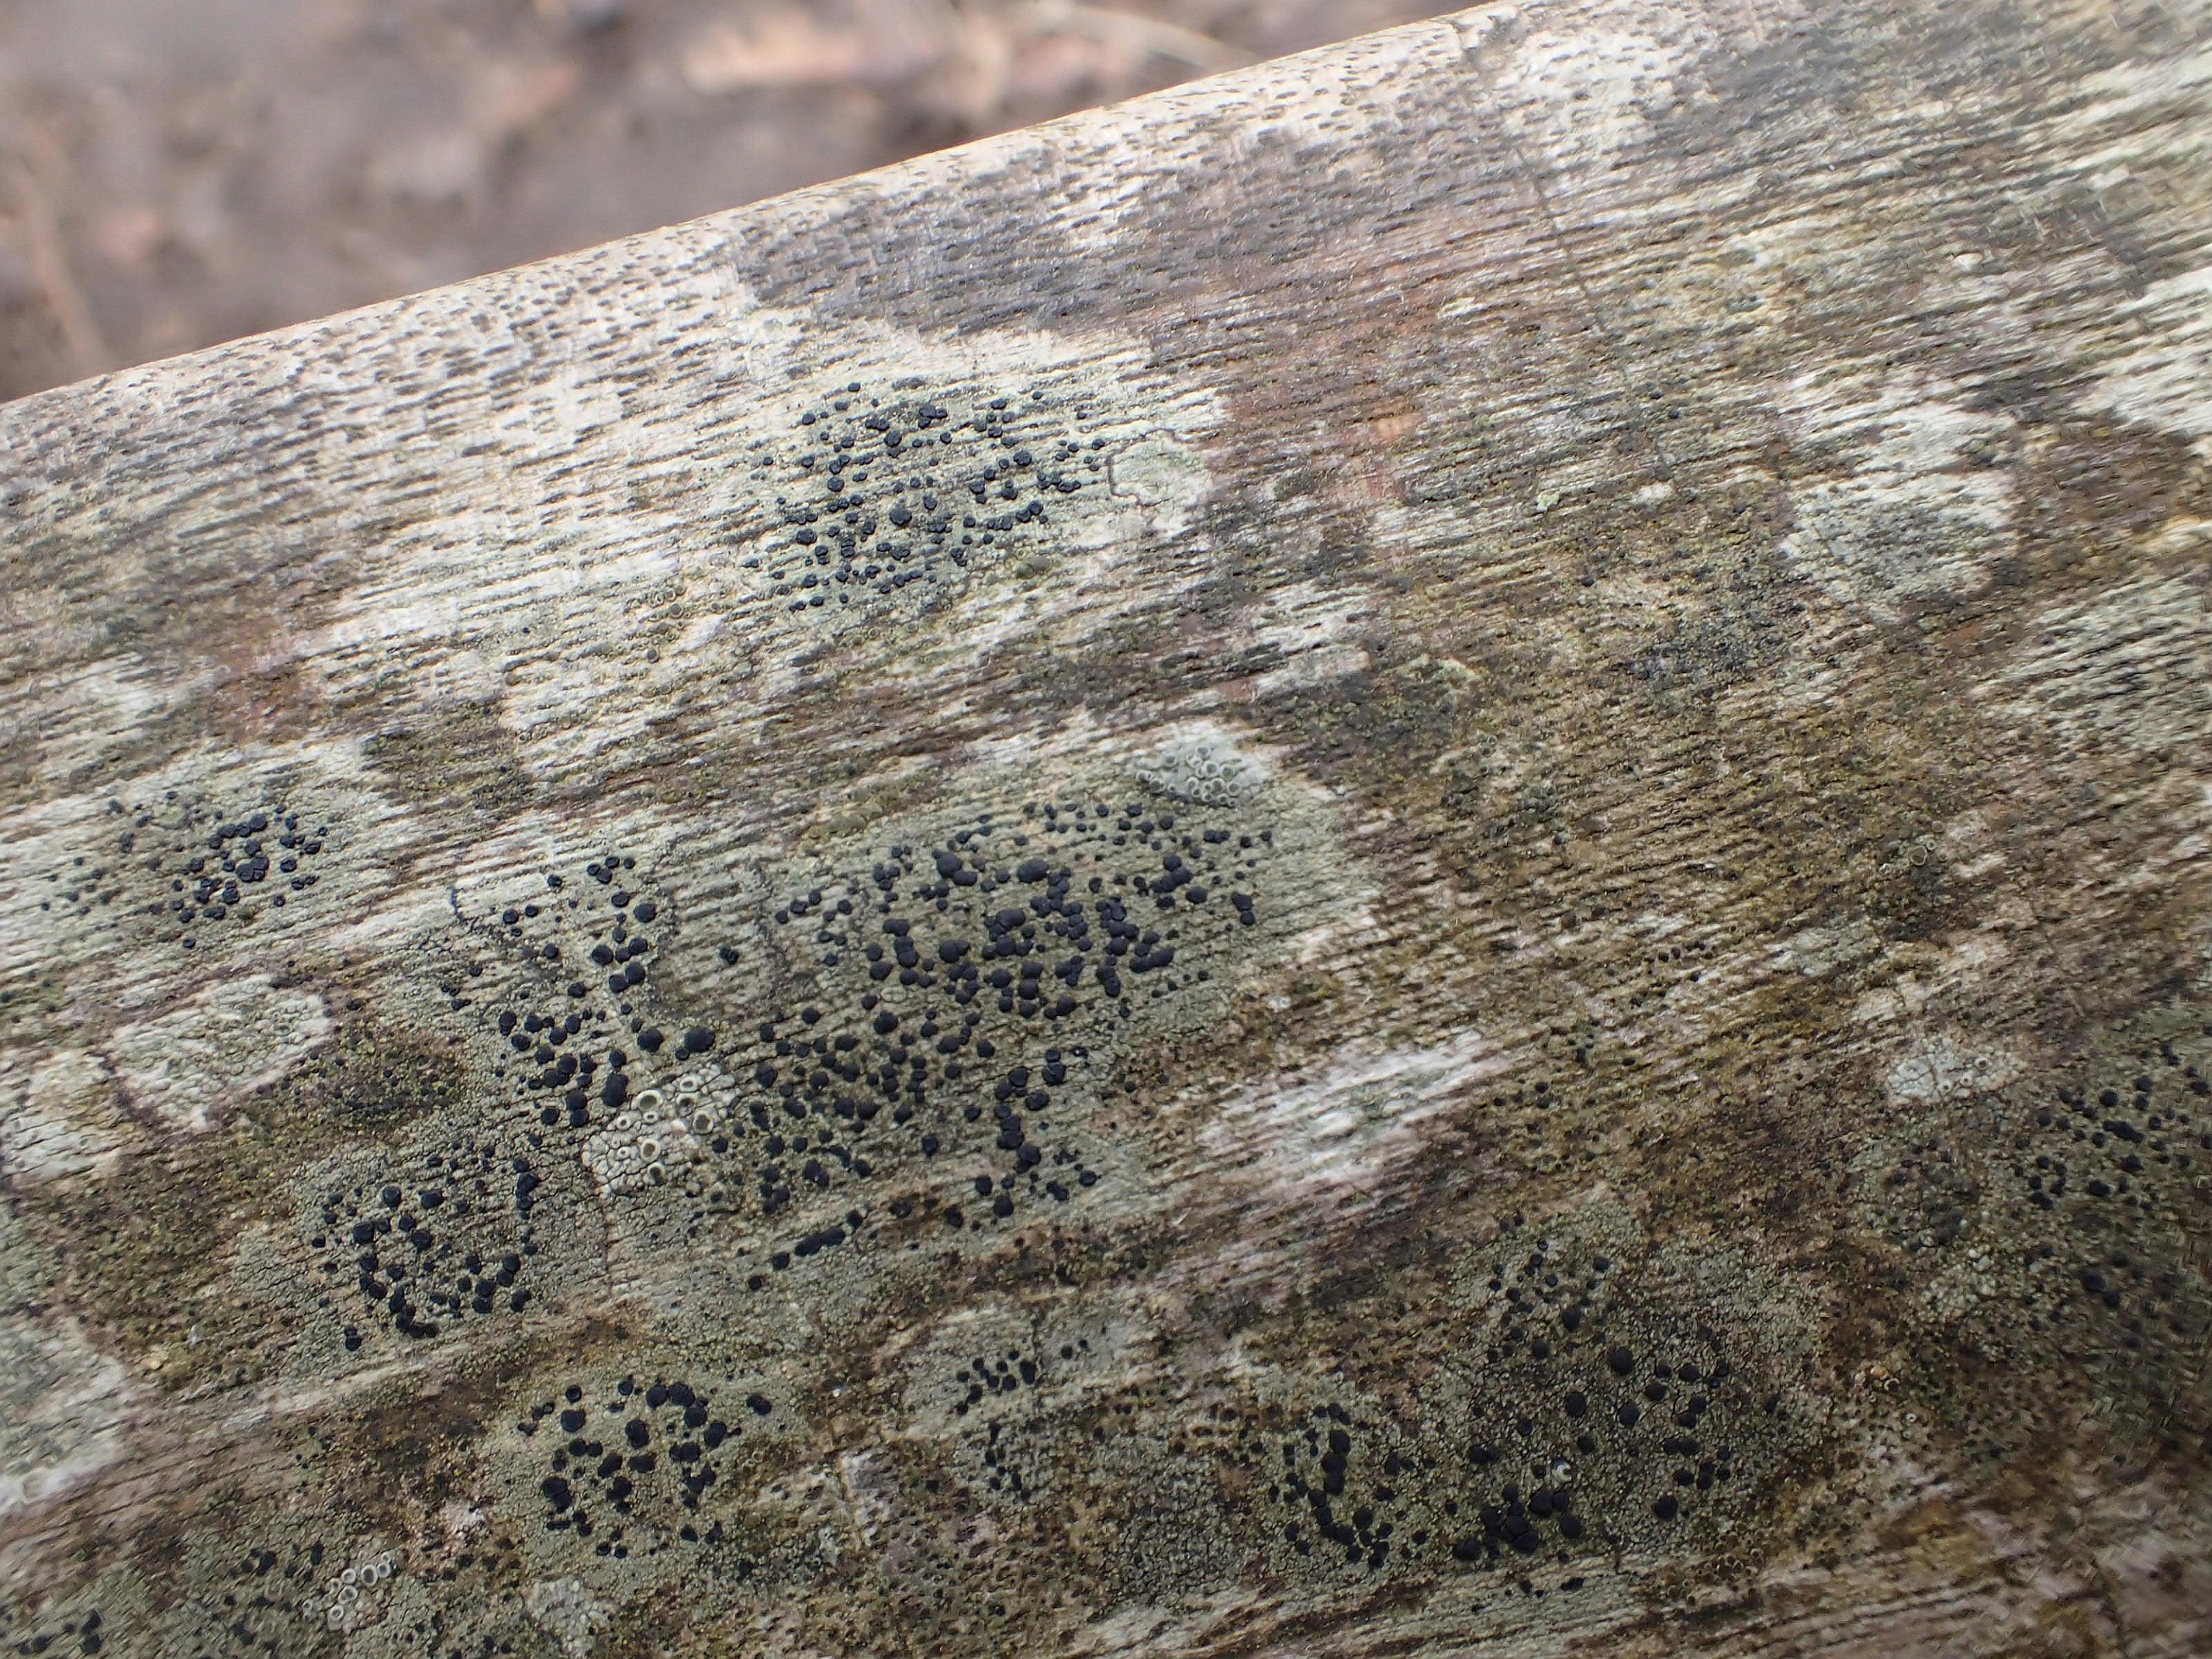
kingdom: Fungi
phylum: Ascomycota
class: Lecanoromycetes
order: Lecanorales
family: Lecanoraceae
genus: Lecidella
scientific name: Lecidella elaeochroma
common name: Grågrøn skivelav
